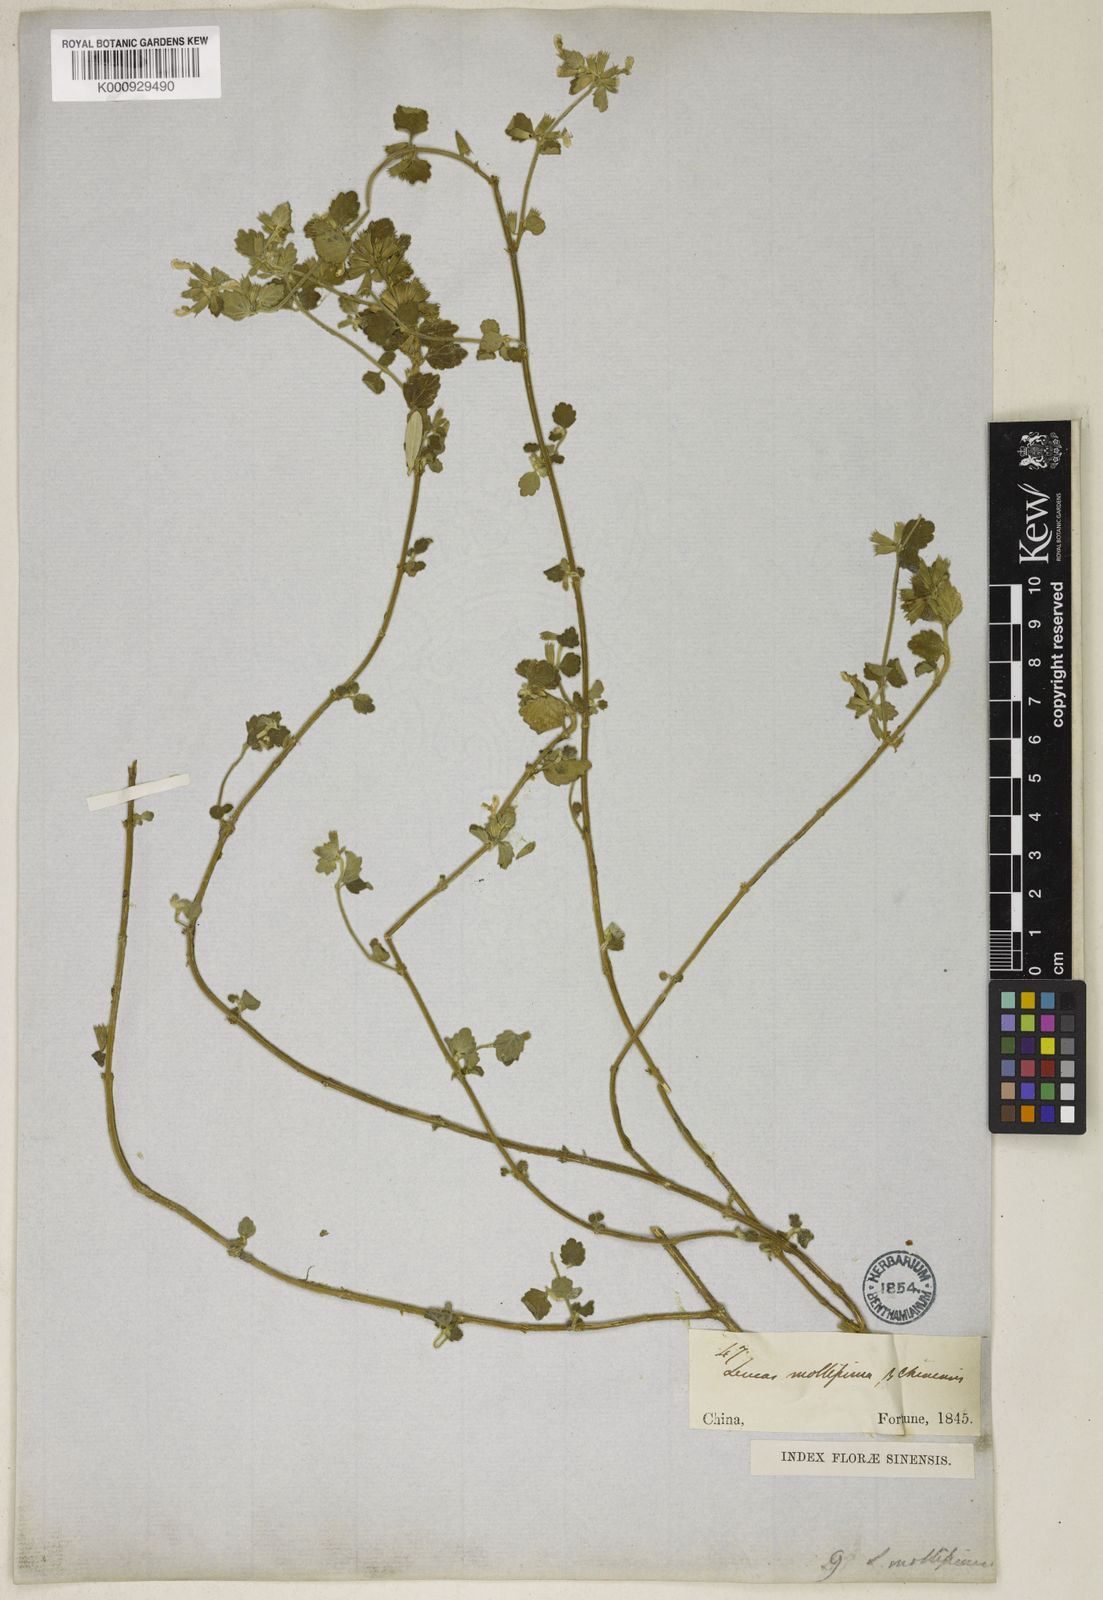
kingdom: Plantae
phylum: Tracheophyta
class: Magnoliopsida
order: Lamiales
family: Lamiaceae
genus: Leucas
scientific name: Leucas chinensis
